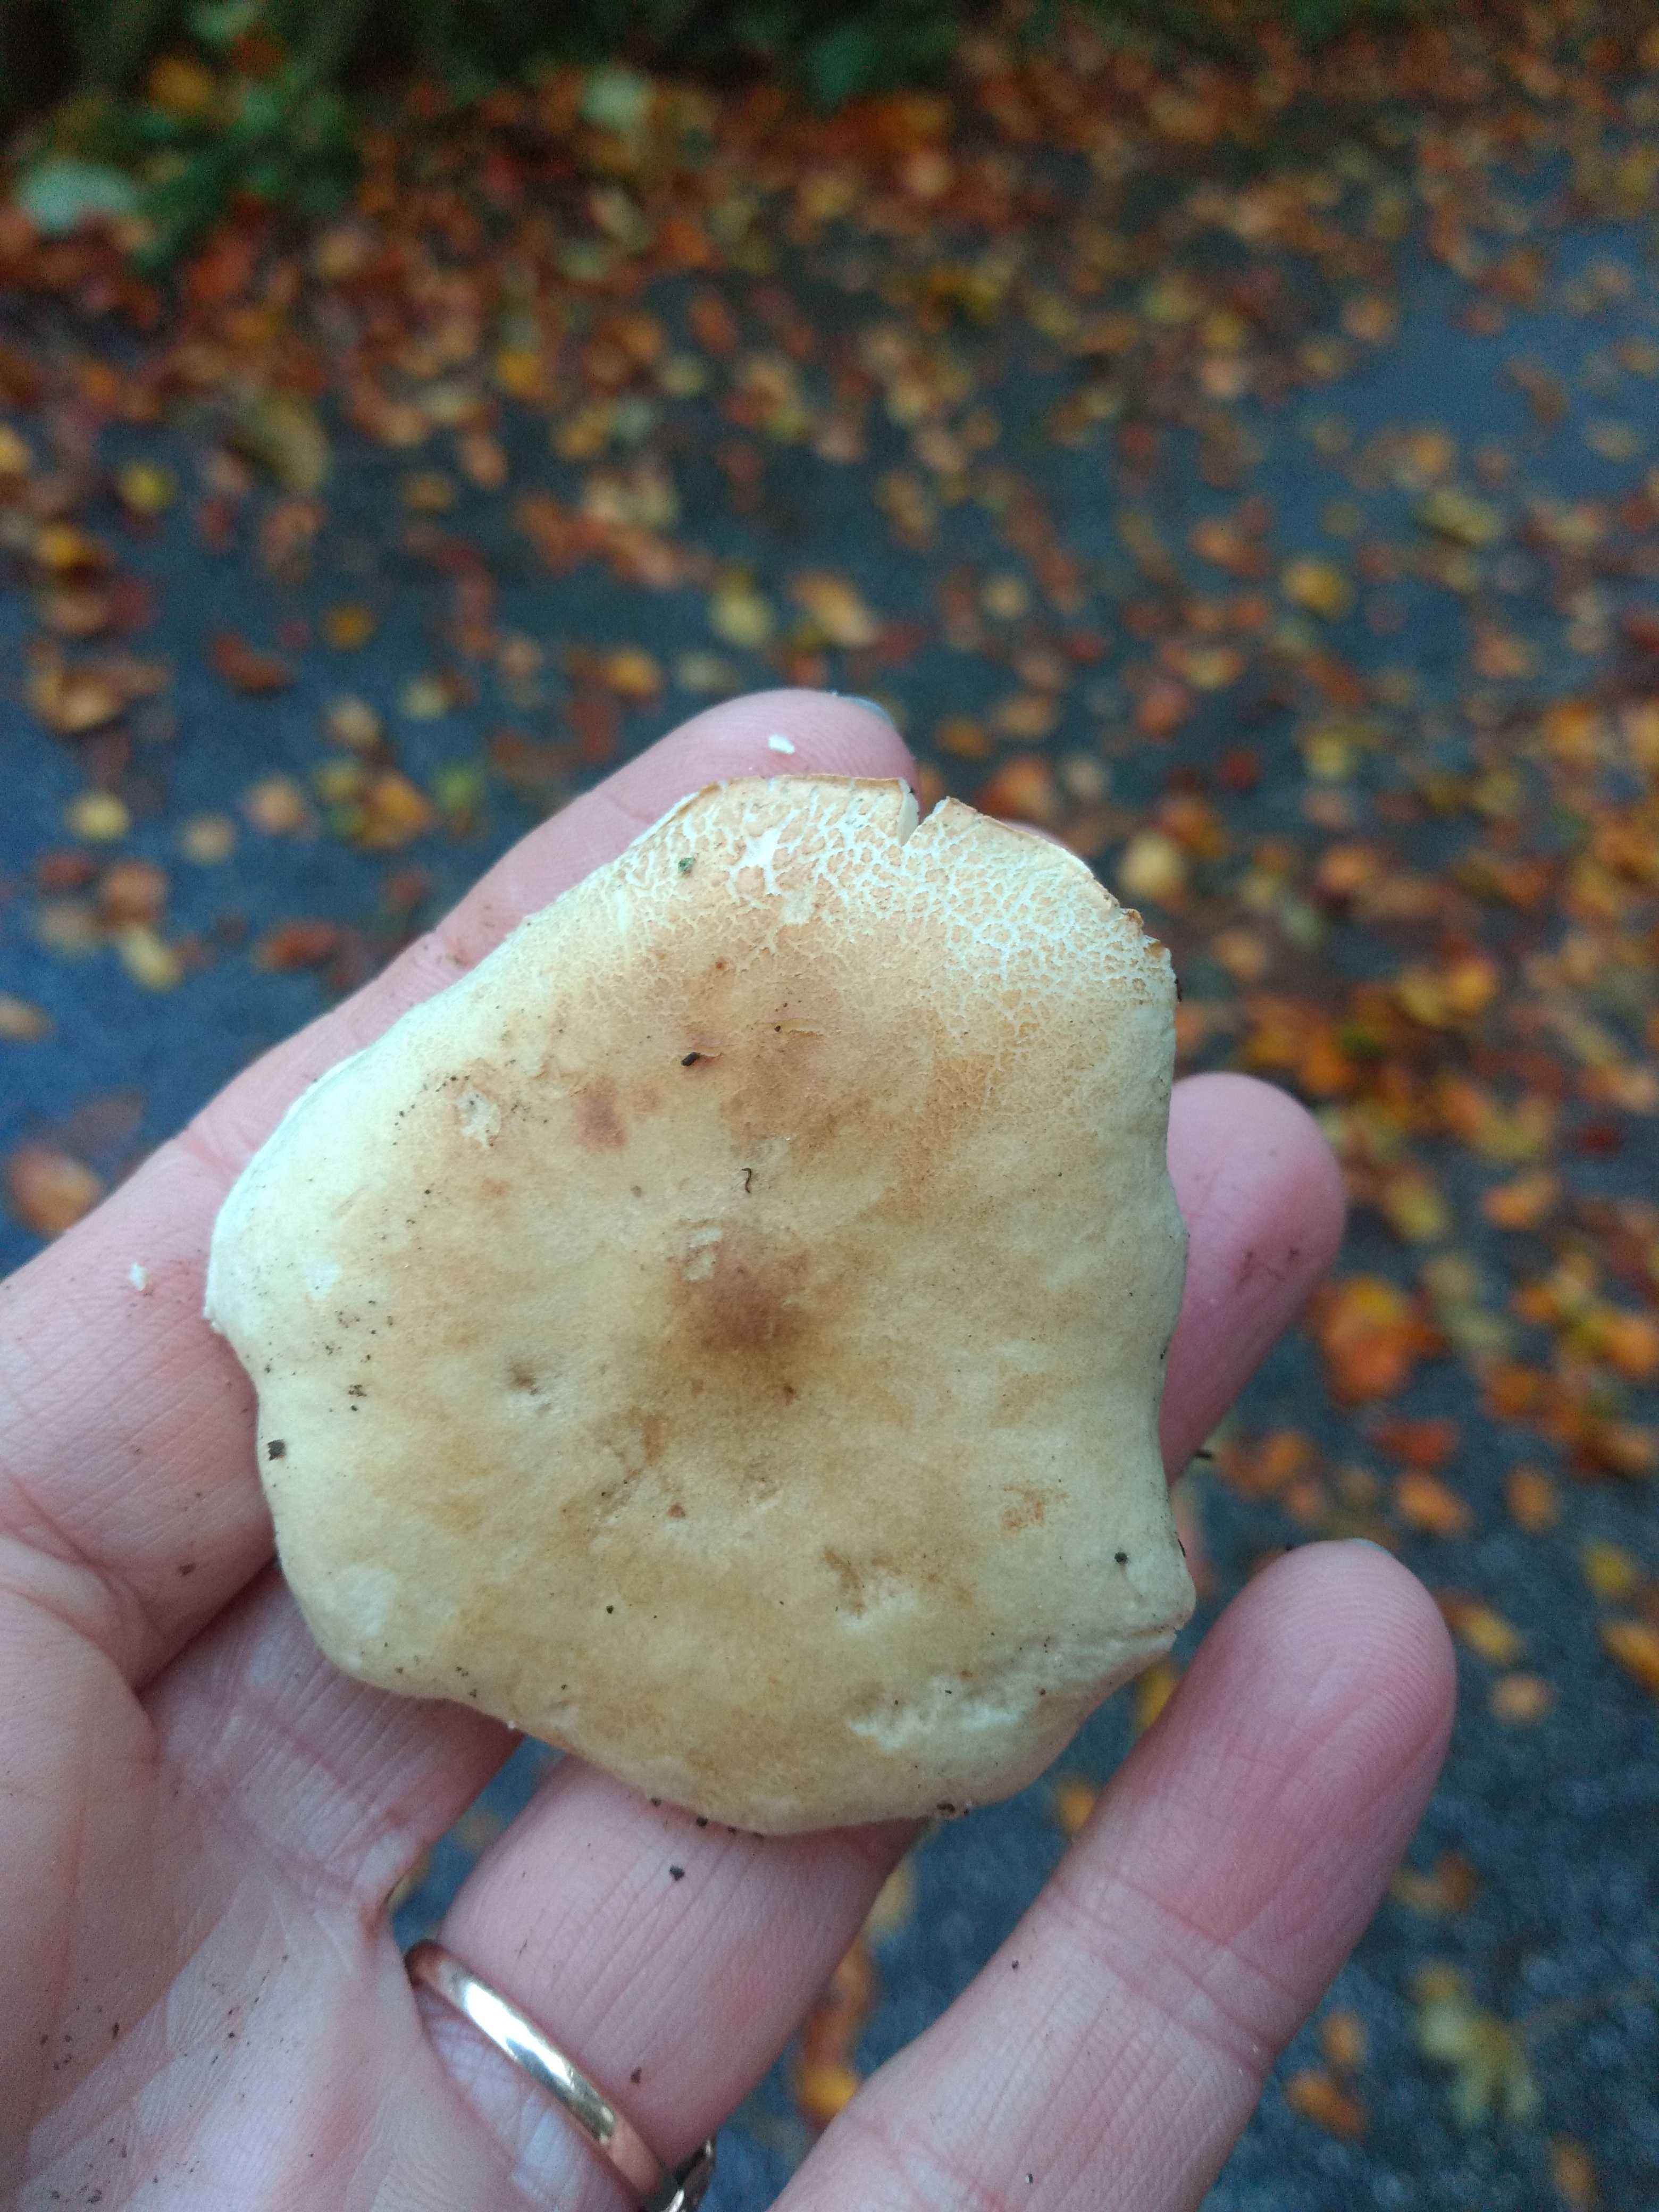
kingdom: Fungi
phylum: Basidiomycota
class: Agaricomycetes
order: Agaricales
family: Tricholomataceae
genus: Tricholoma
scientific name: Tricholoma
